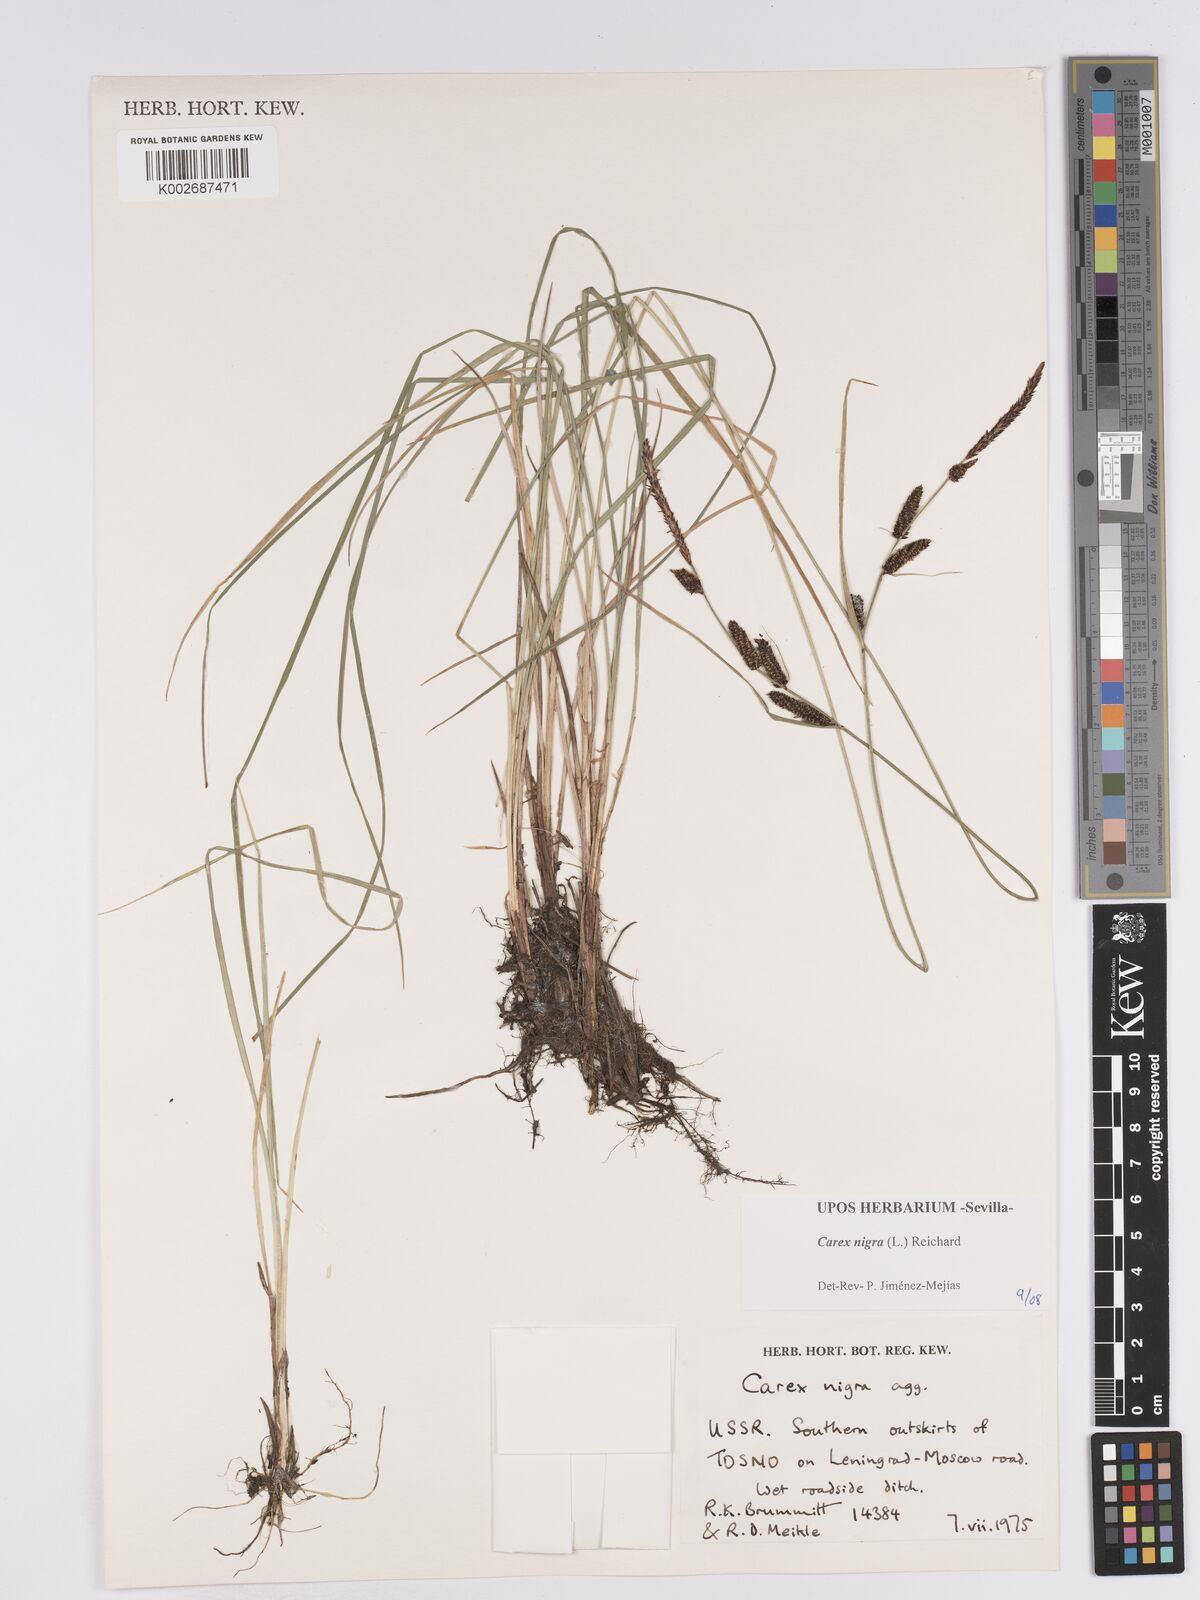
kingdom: Plantae
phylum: Tracheophyta
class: Liliopsida
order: Poales
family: Cyperaceae
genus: Carex
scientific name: Carex nigra
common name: Common sedge
